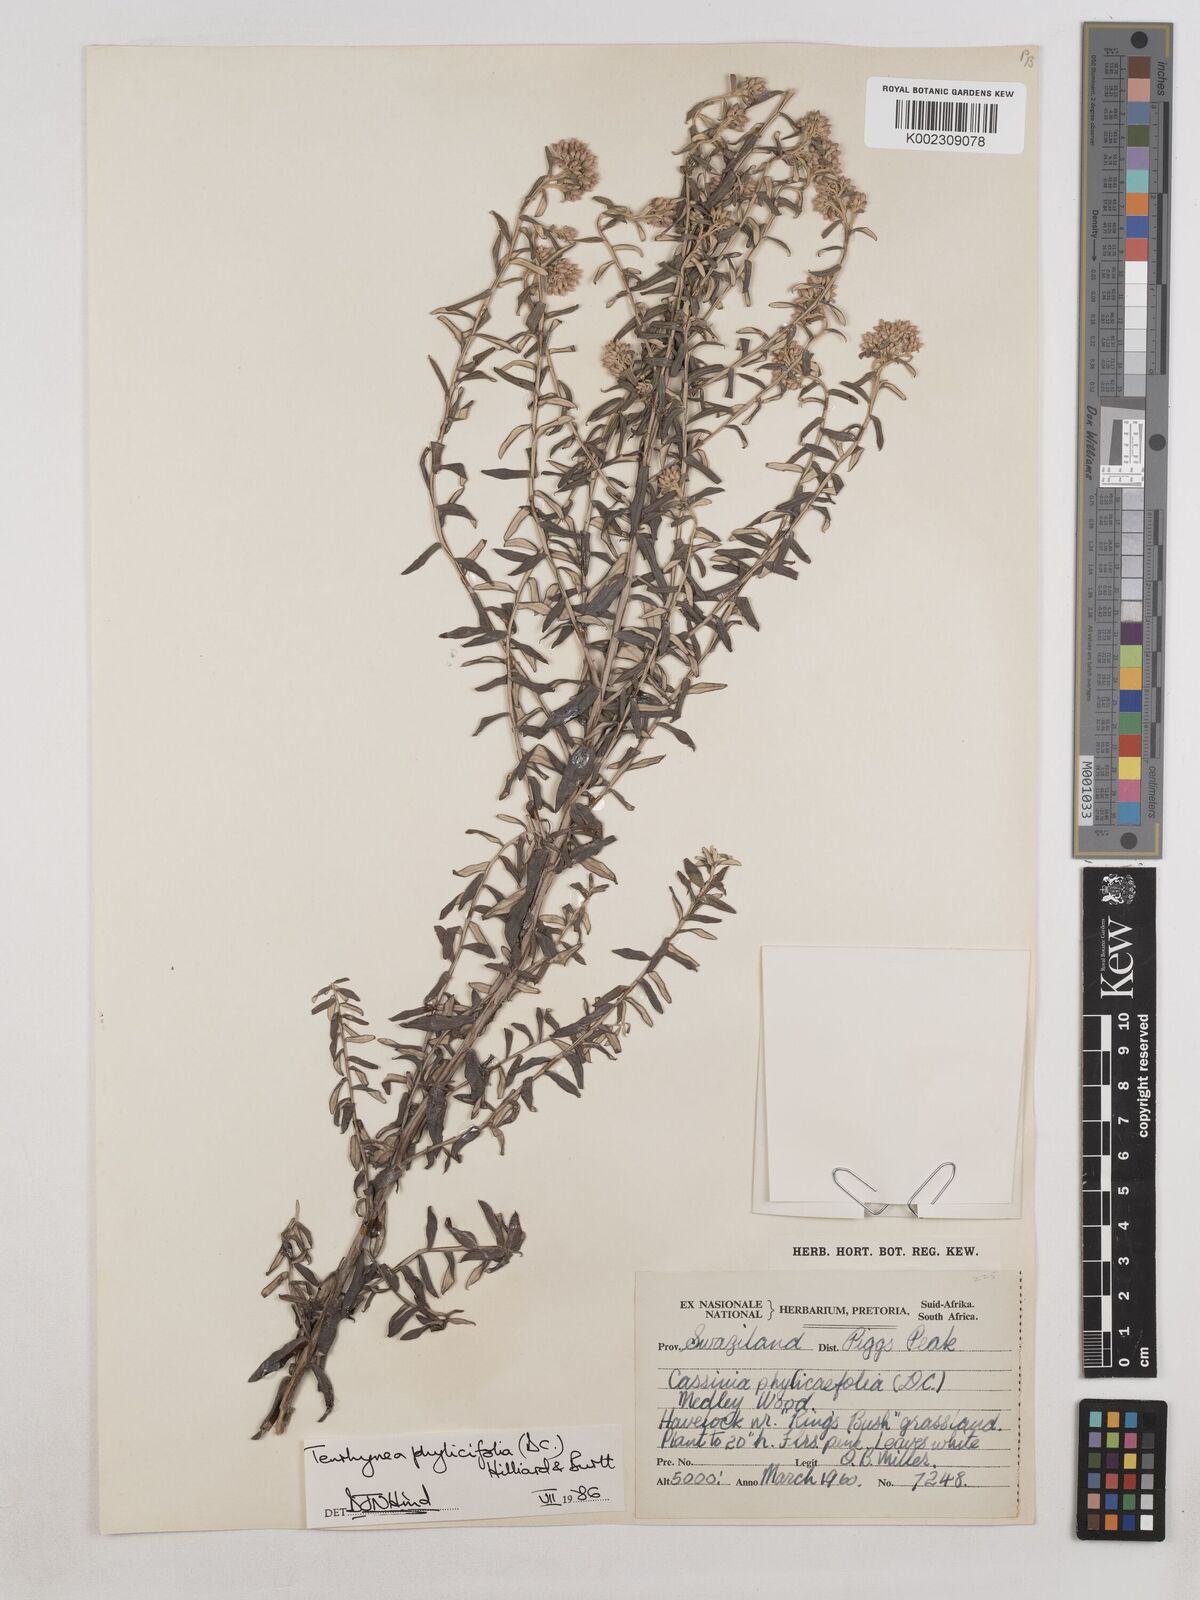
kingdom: Plantae
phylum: Tracheophyta
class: Magnoliopsida
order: Asterales
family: Asteraceae
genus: Tenrhynea
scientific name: Tenrhynea phylicifolia
